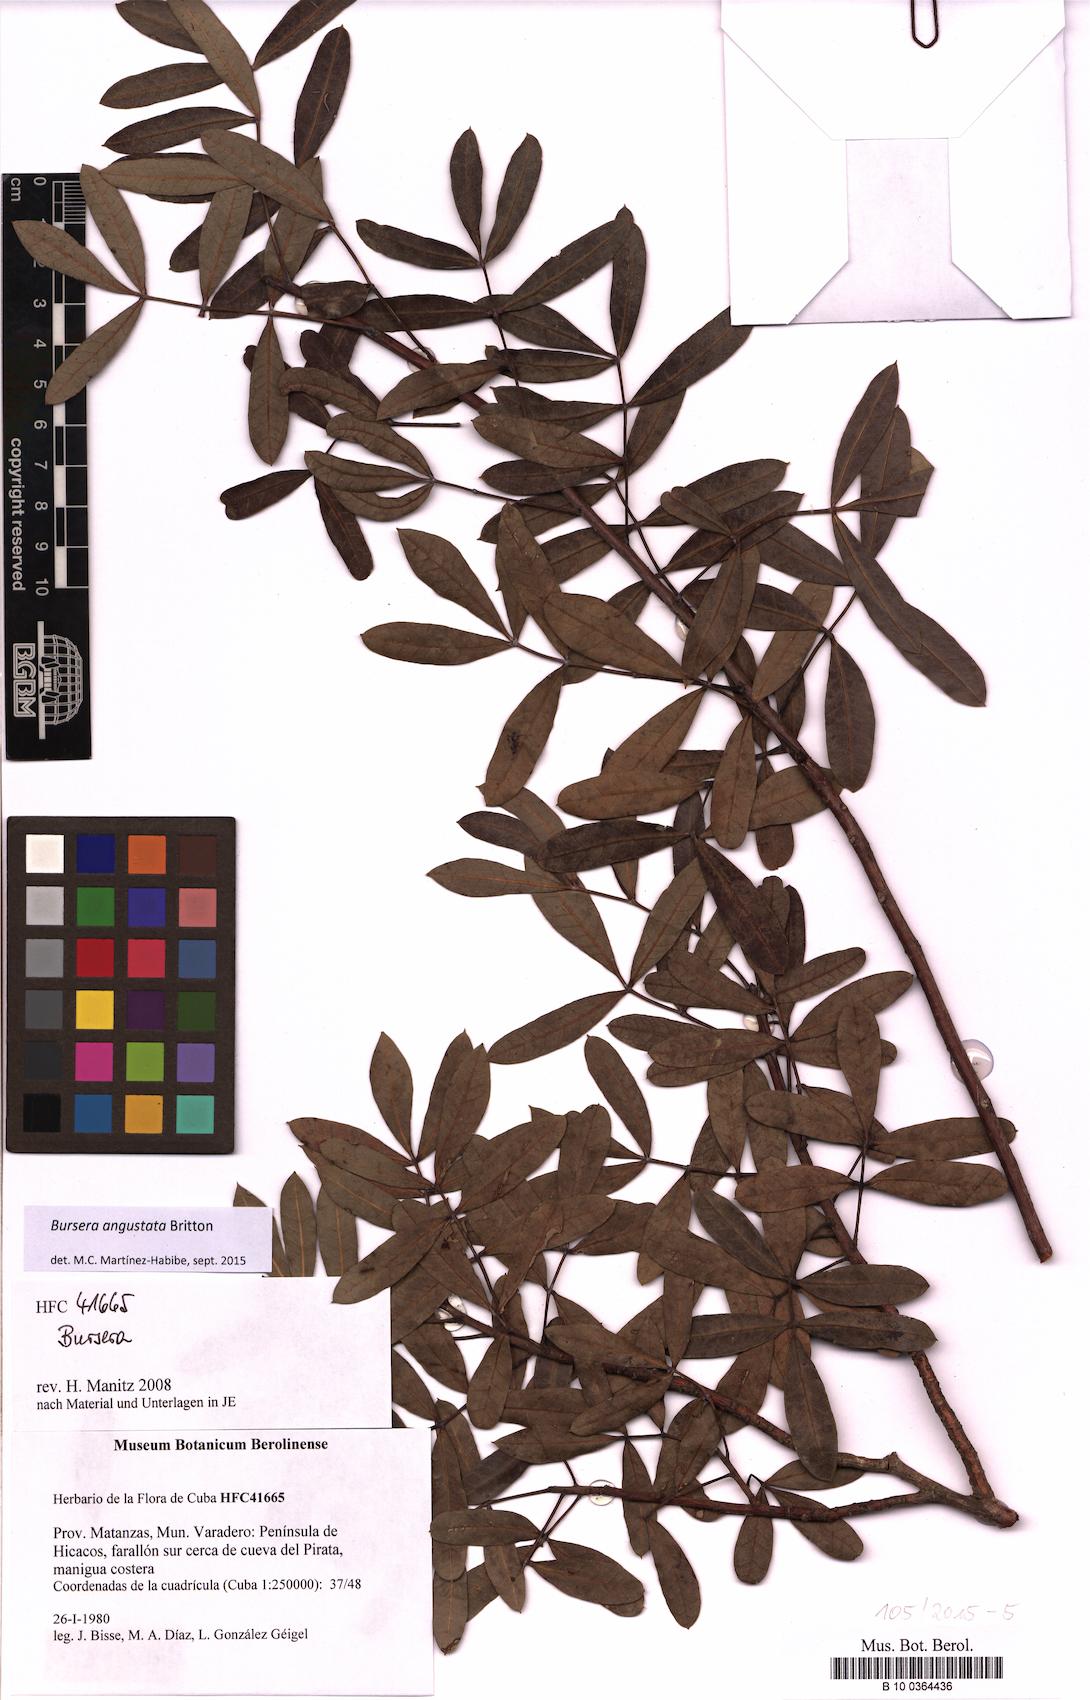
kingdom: Plantae
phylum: Tracheophyta
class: Magnoliopsida
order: Sapindales
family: Burseraceae
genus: Bursera
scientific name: Bursera angustata
